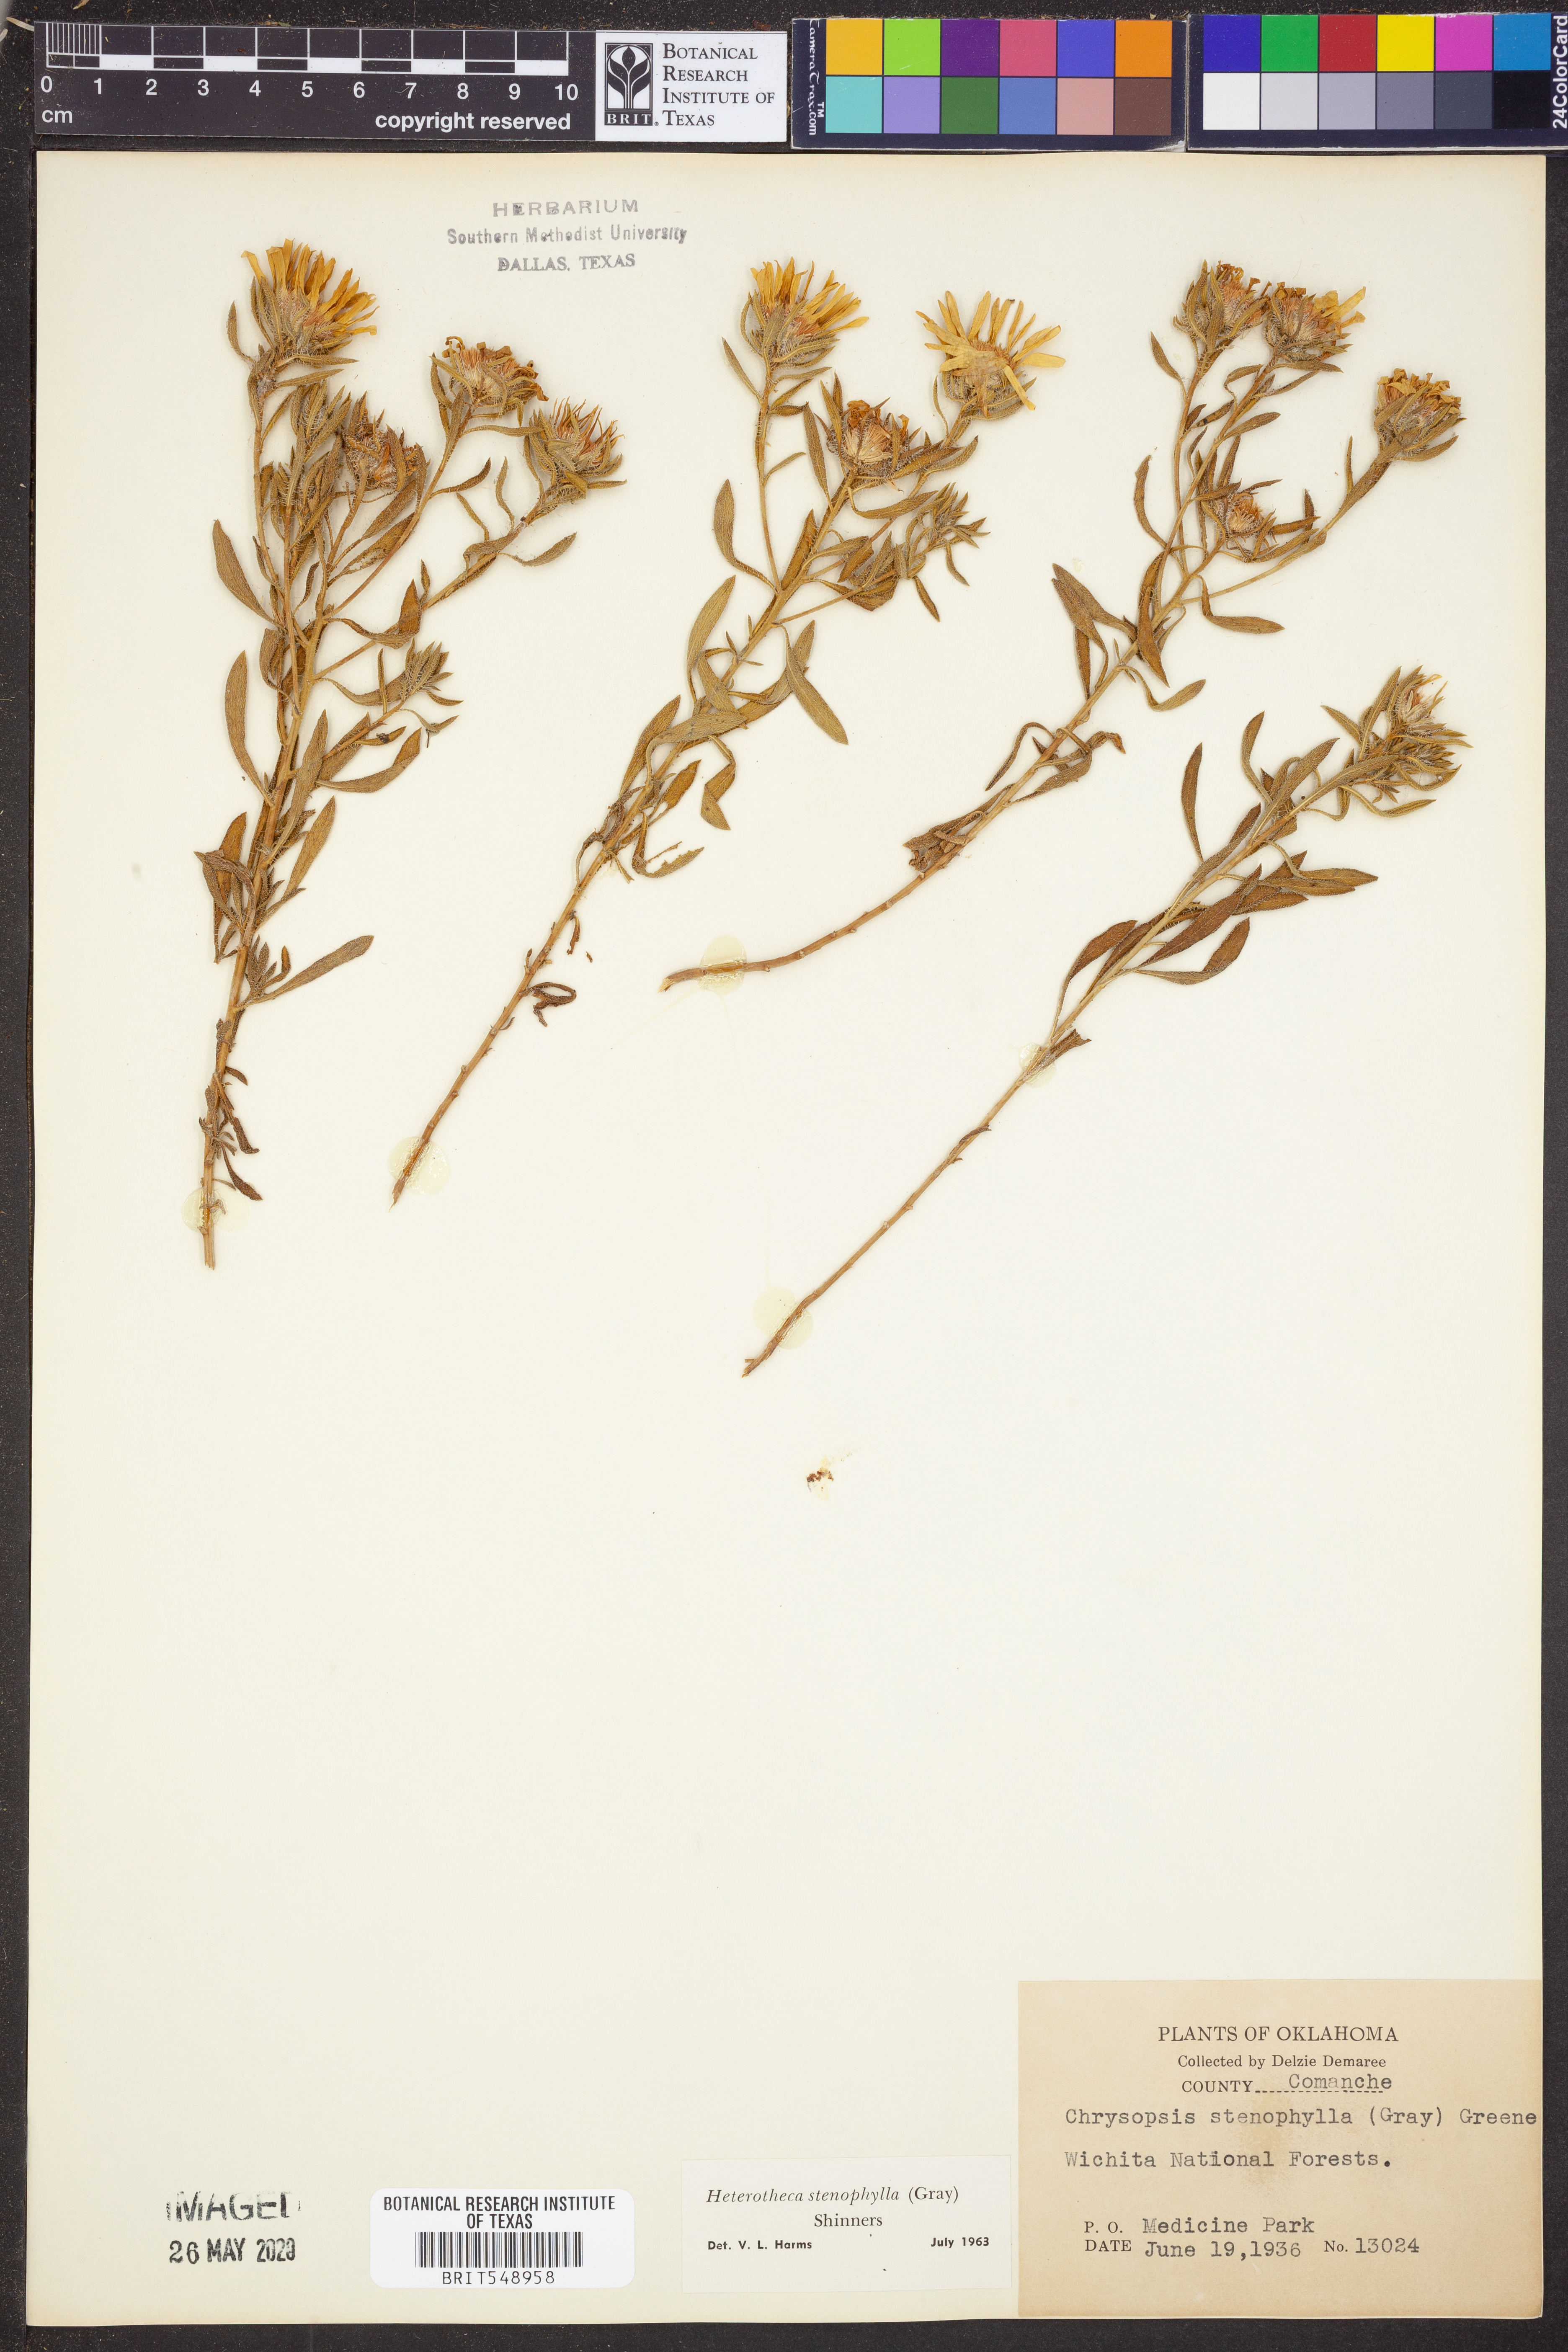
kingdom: Plantae
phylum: Tracheophyta
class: Magnoliopsida
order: Asterales
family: Asteraceae
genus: Heterotheca
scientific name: Heterotheca stenophylla
